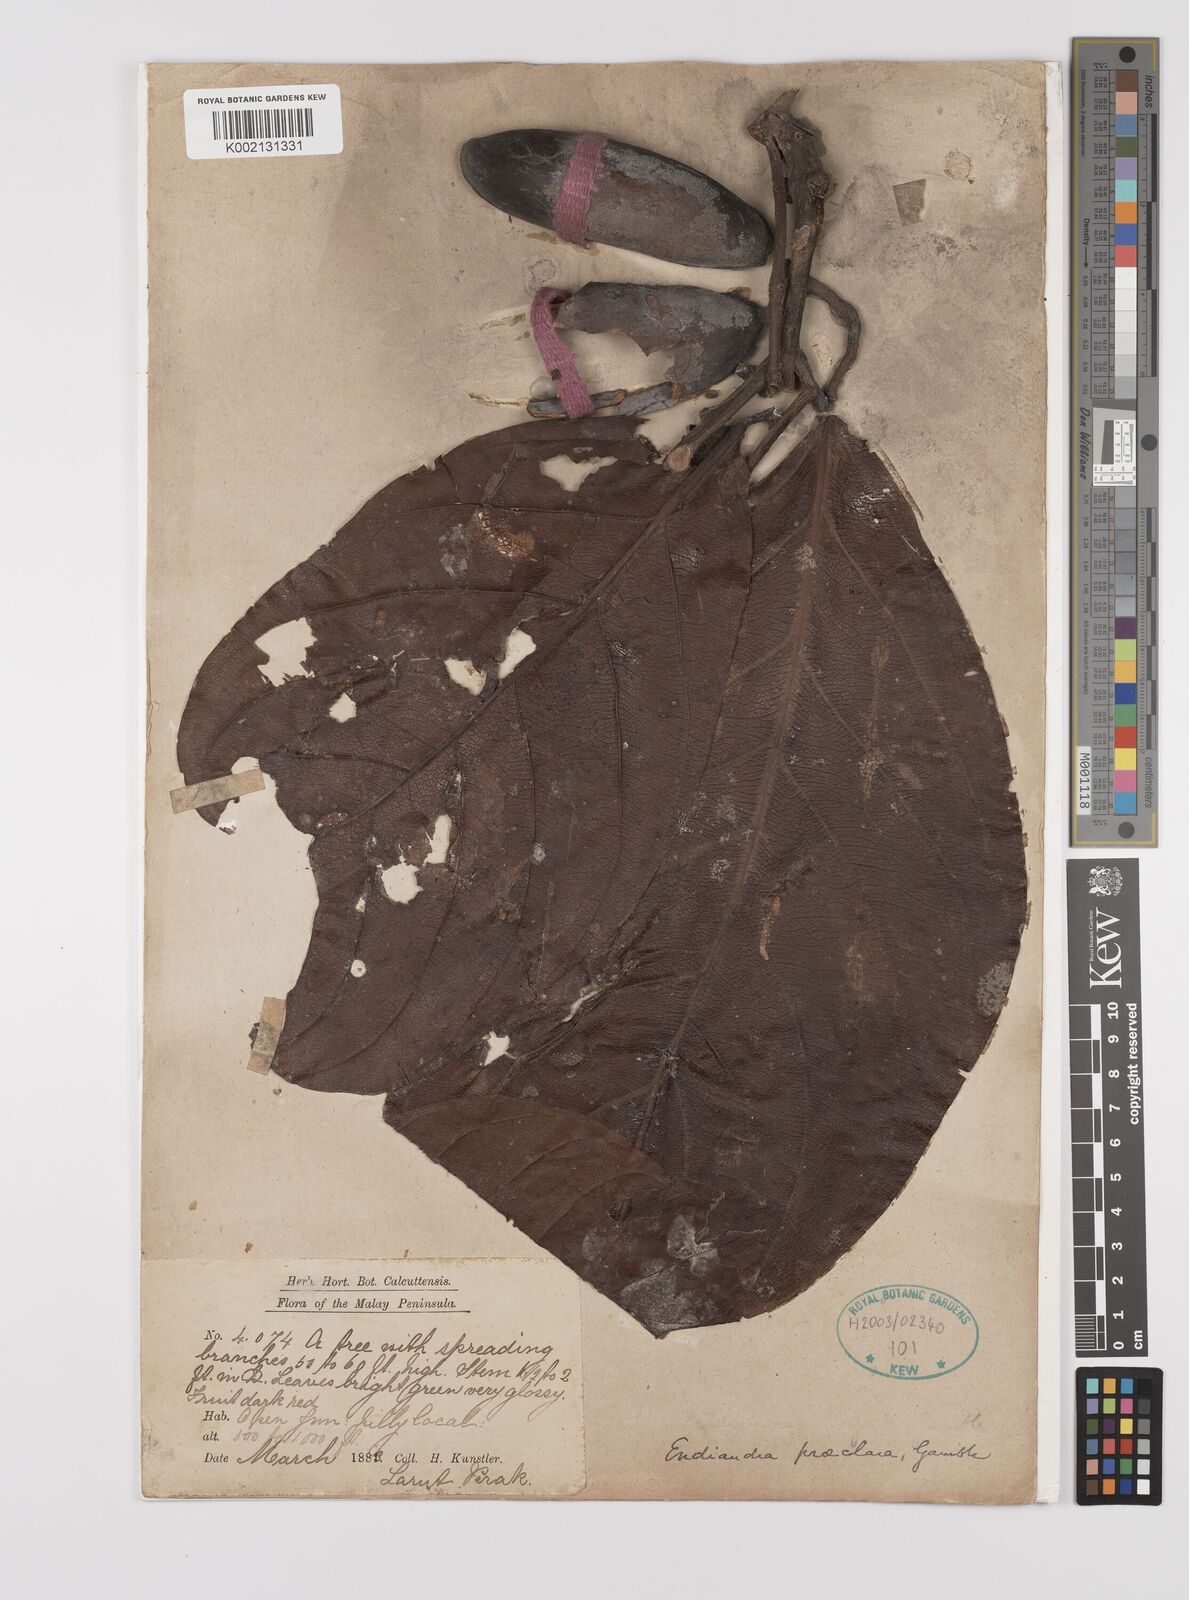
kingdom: Plantae
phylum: Tracheophyta
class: Magnoliopsida
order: Laurales
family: Lauraceae
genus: Endiandra
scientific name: Endiandra praeclara
